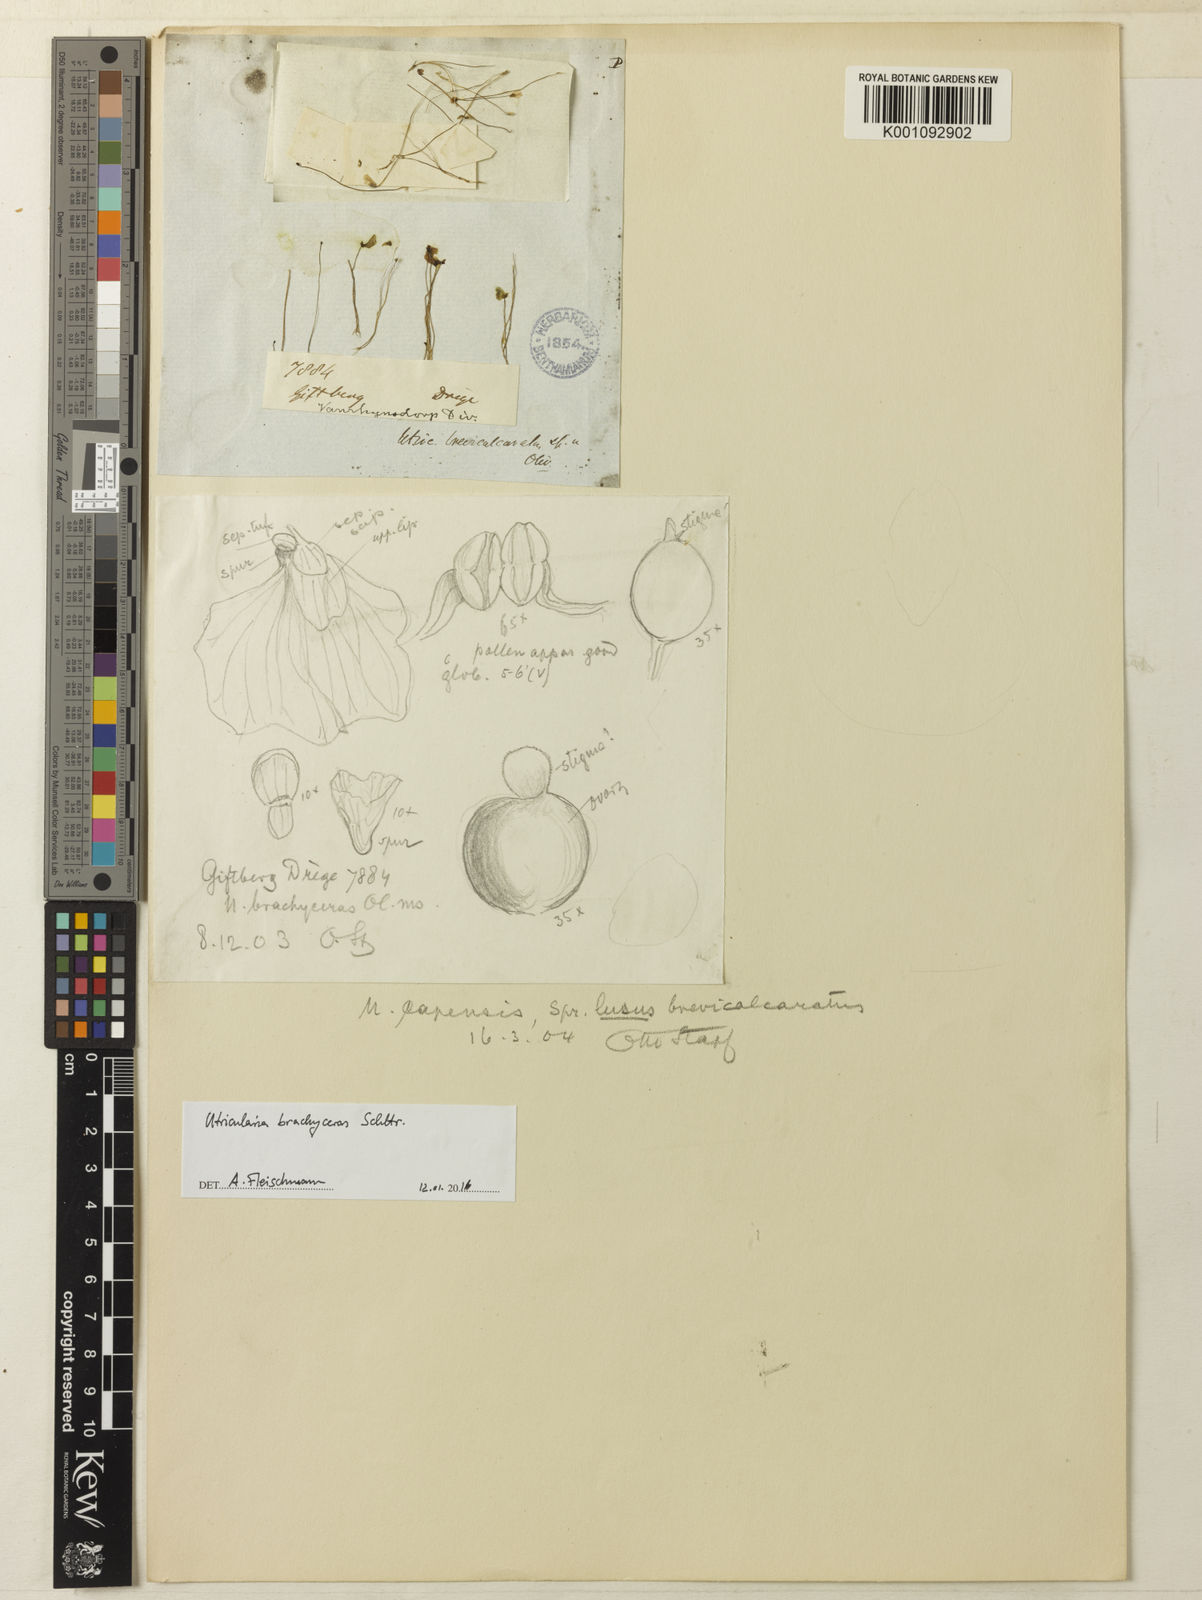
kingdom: Plantae
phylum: Tracheophyta
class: Magnoliopsida
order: Lamiales
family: Lentibulariaceae
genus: Utricularia
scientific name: Utricularia bisquamata
